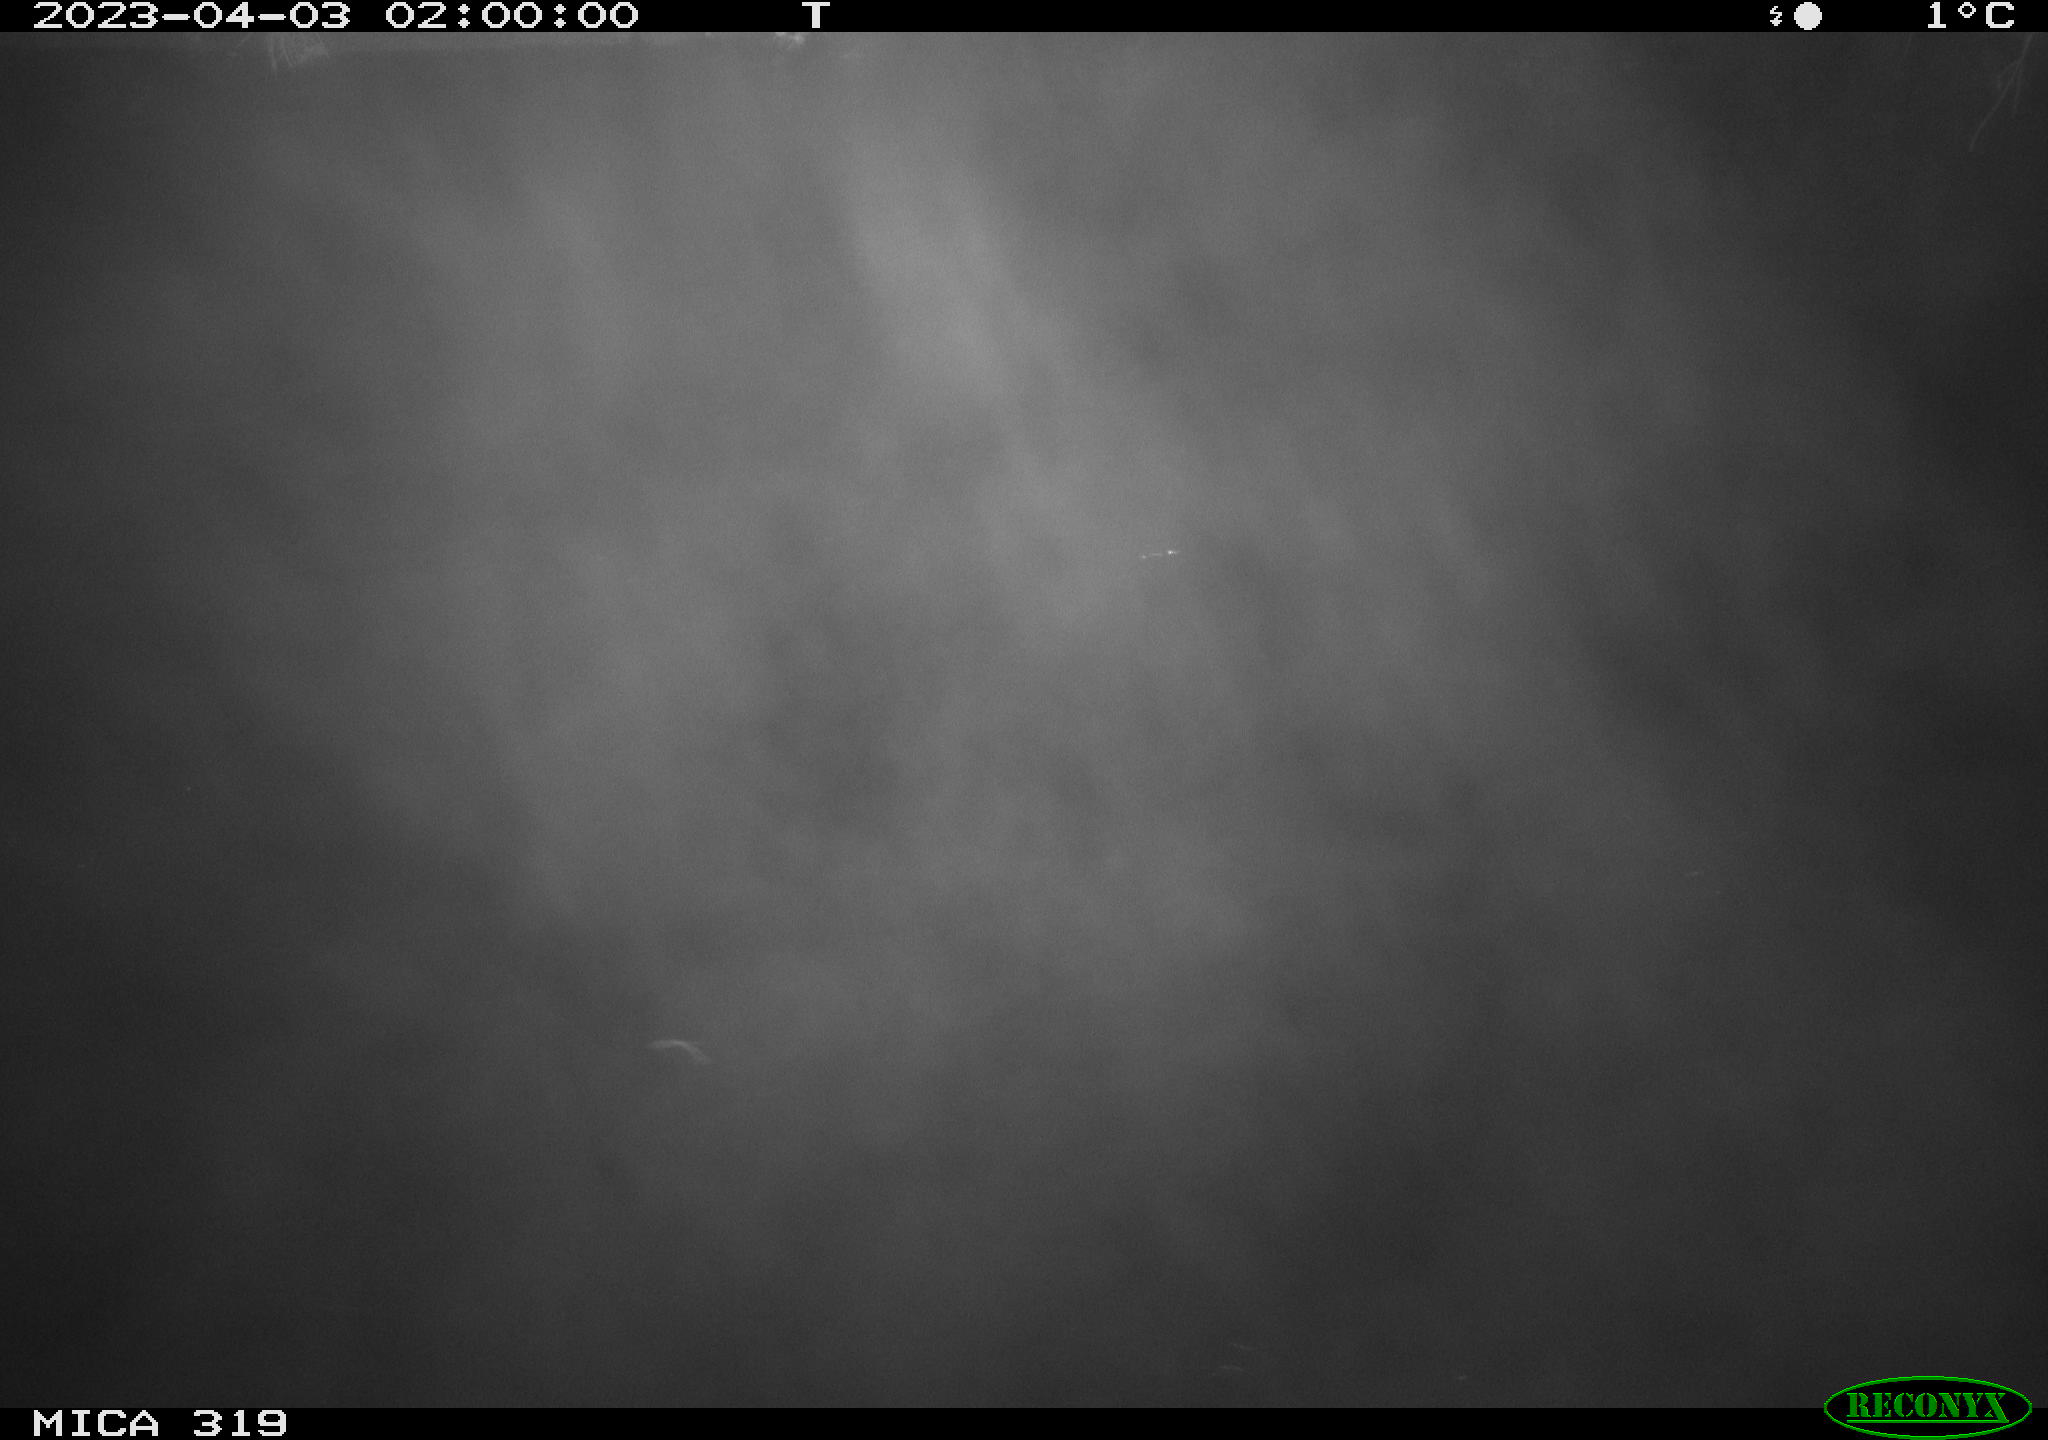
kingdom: Animalia
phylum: Chordata
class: Mammalia
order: Rodentia
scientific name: Rodentia
